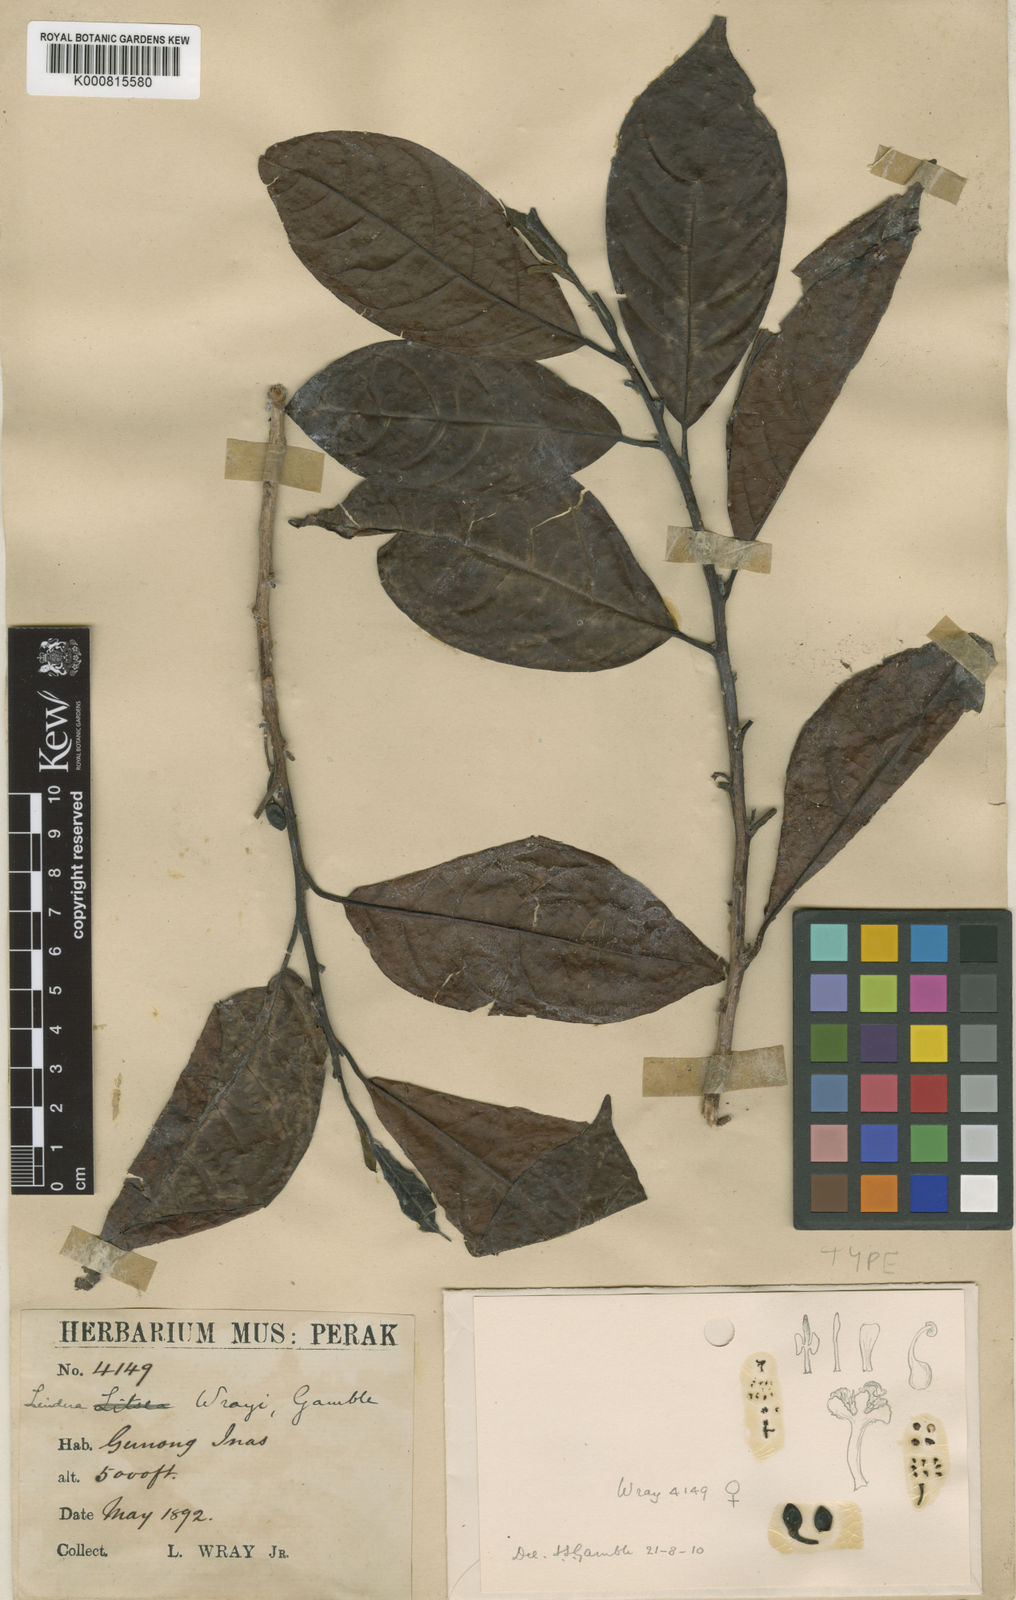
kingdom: Plantae
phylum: Tracheophyta
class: Magnoliopsida
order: Laurales
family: Lauraceae
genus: Lindera
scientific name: Lindera wrayi
